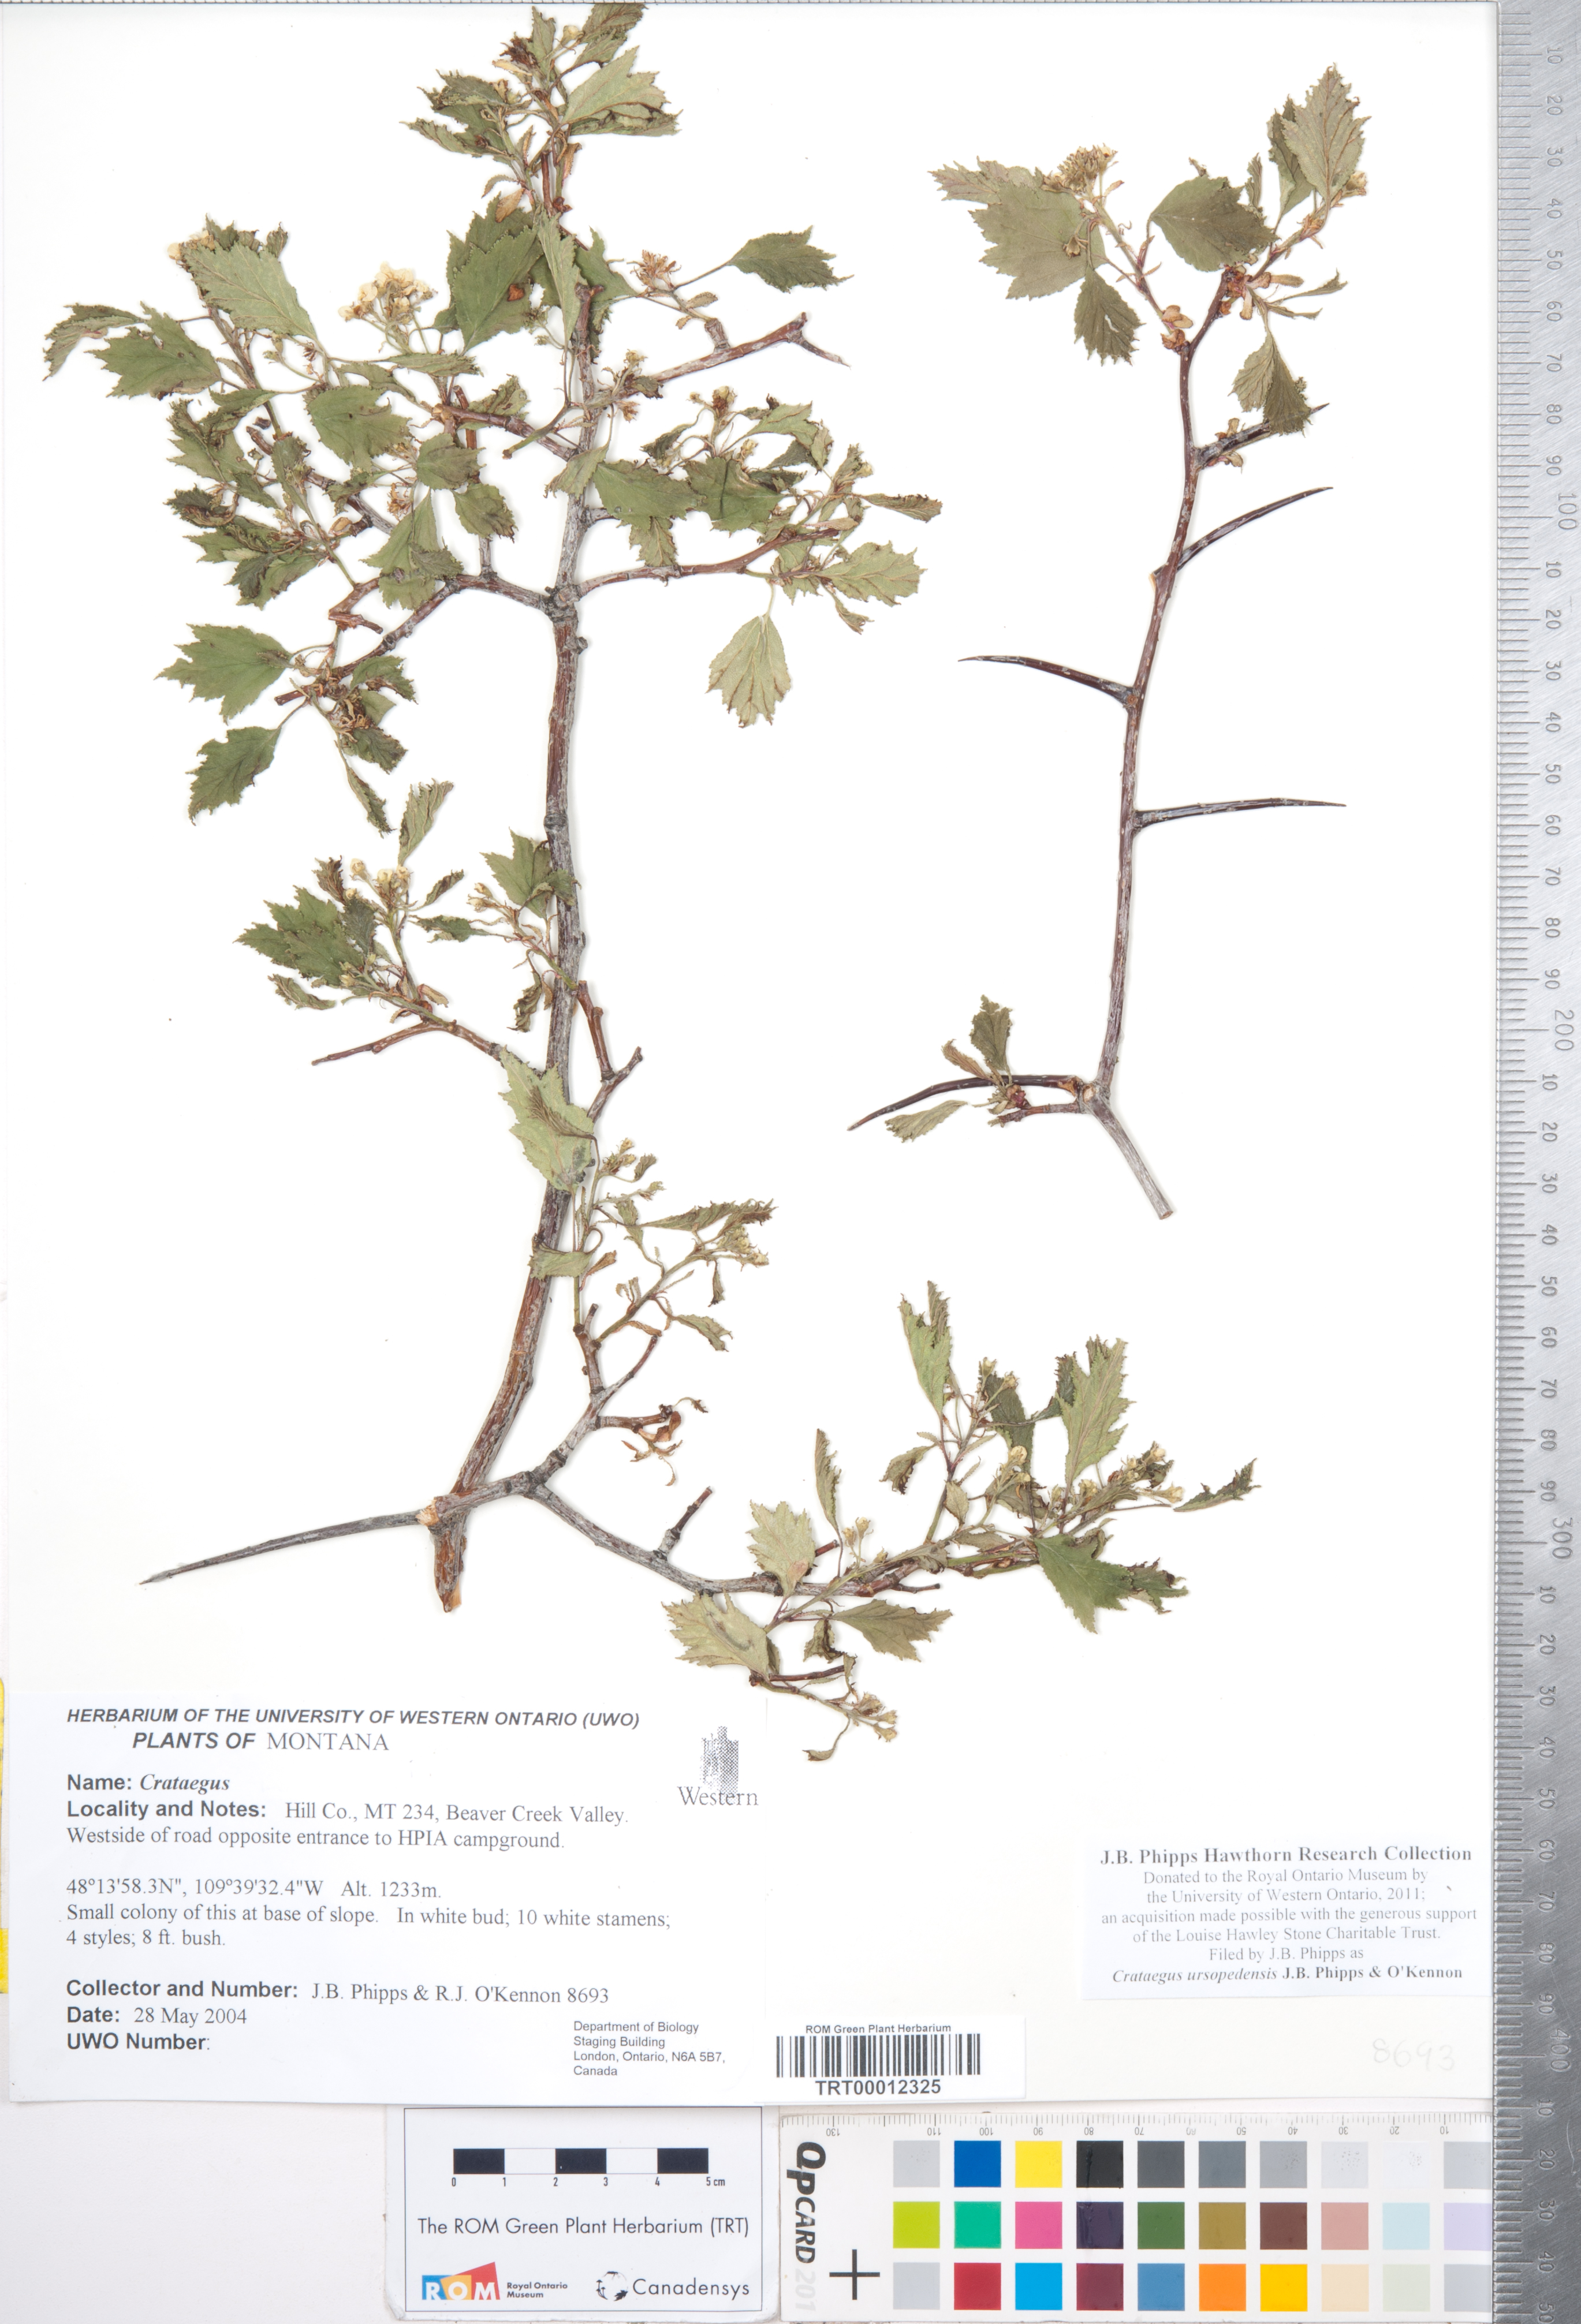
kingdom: Plantae
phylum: Tracheophyta
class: Magnoliopsida
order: Rosales
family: Rosaceae
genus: Crataegus
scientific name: Crataegus ursopedensis
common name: Bears paw hawthorn
